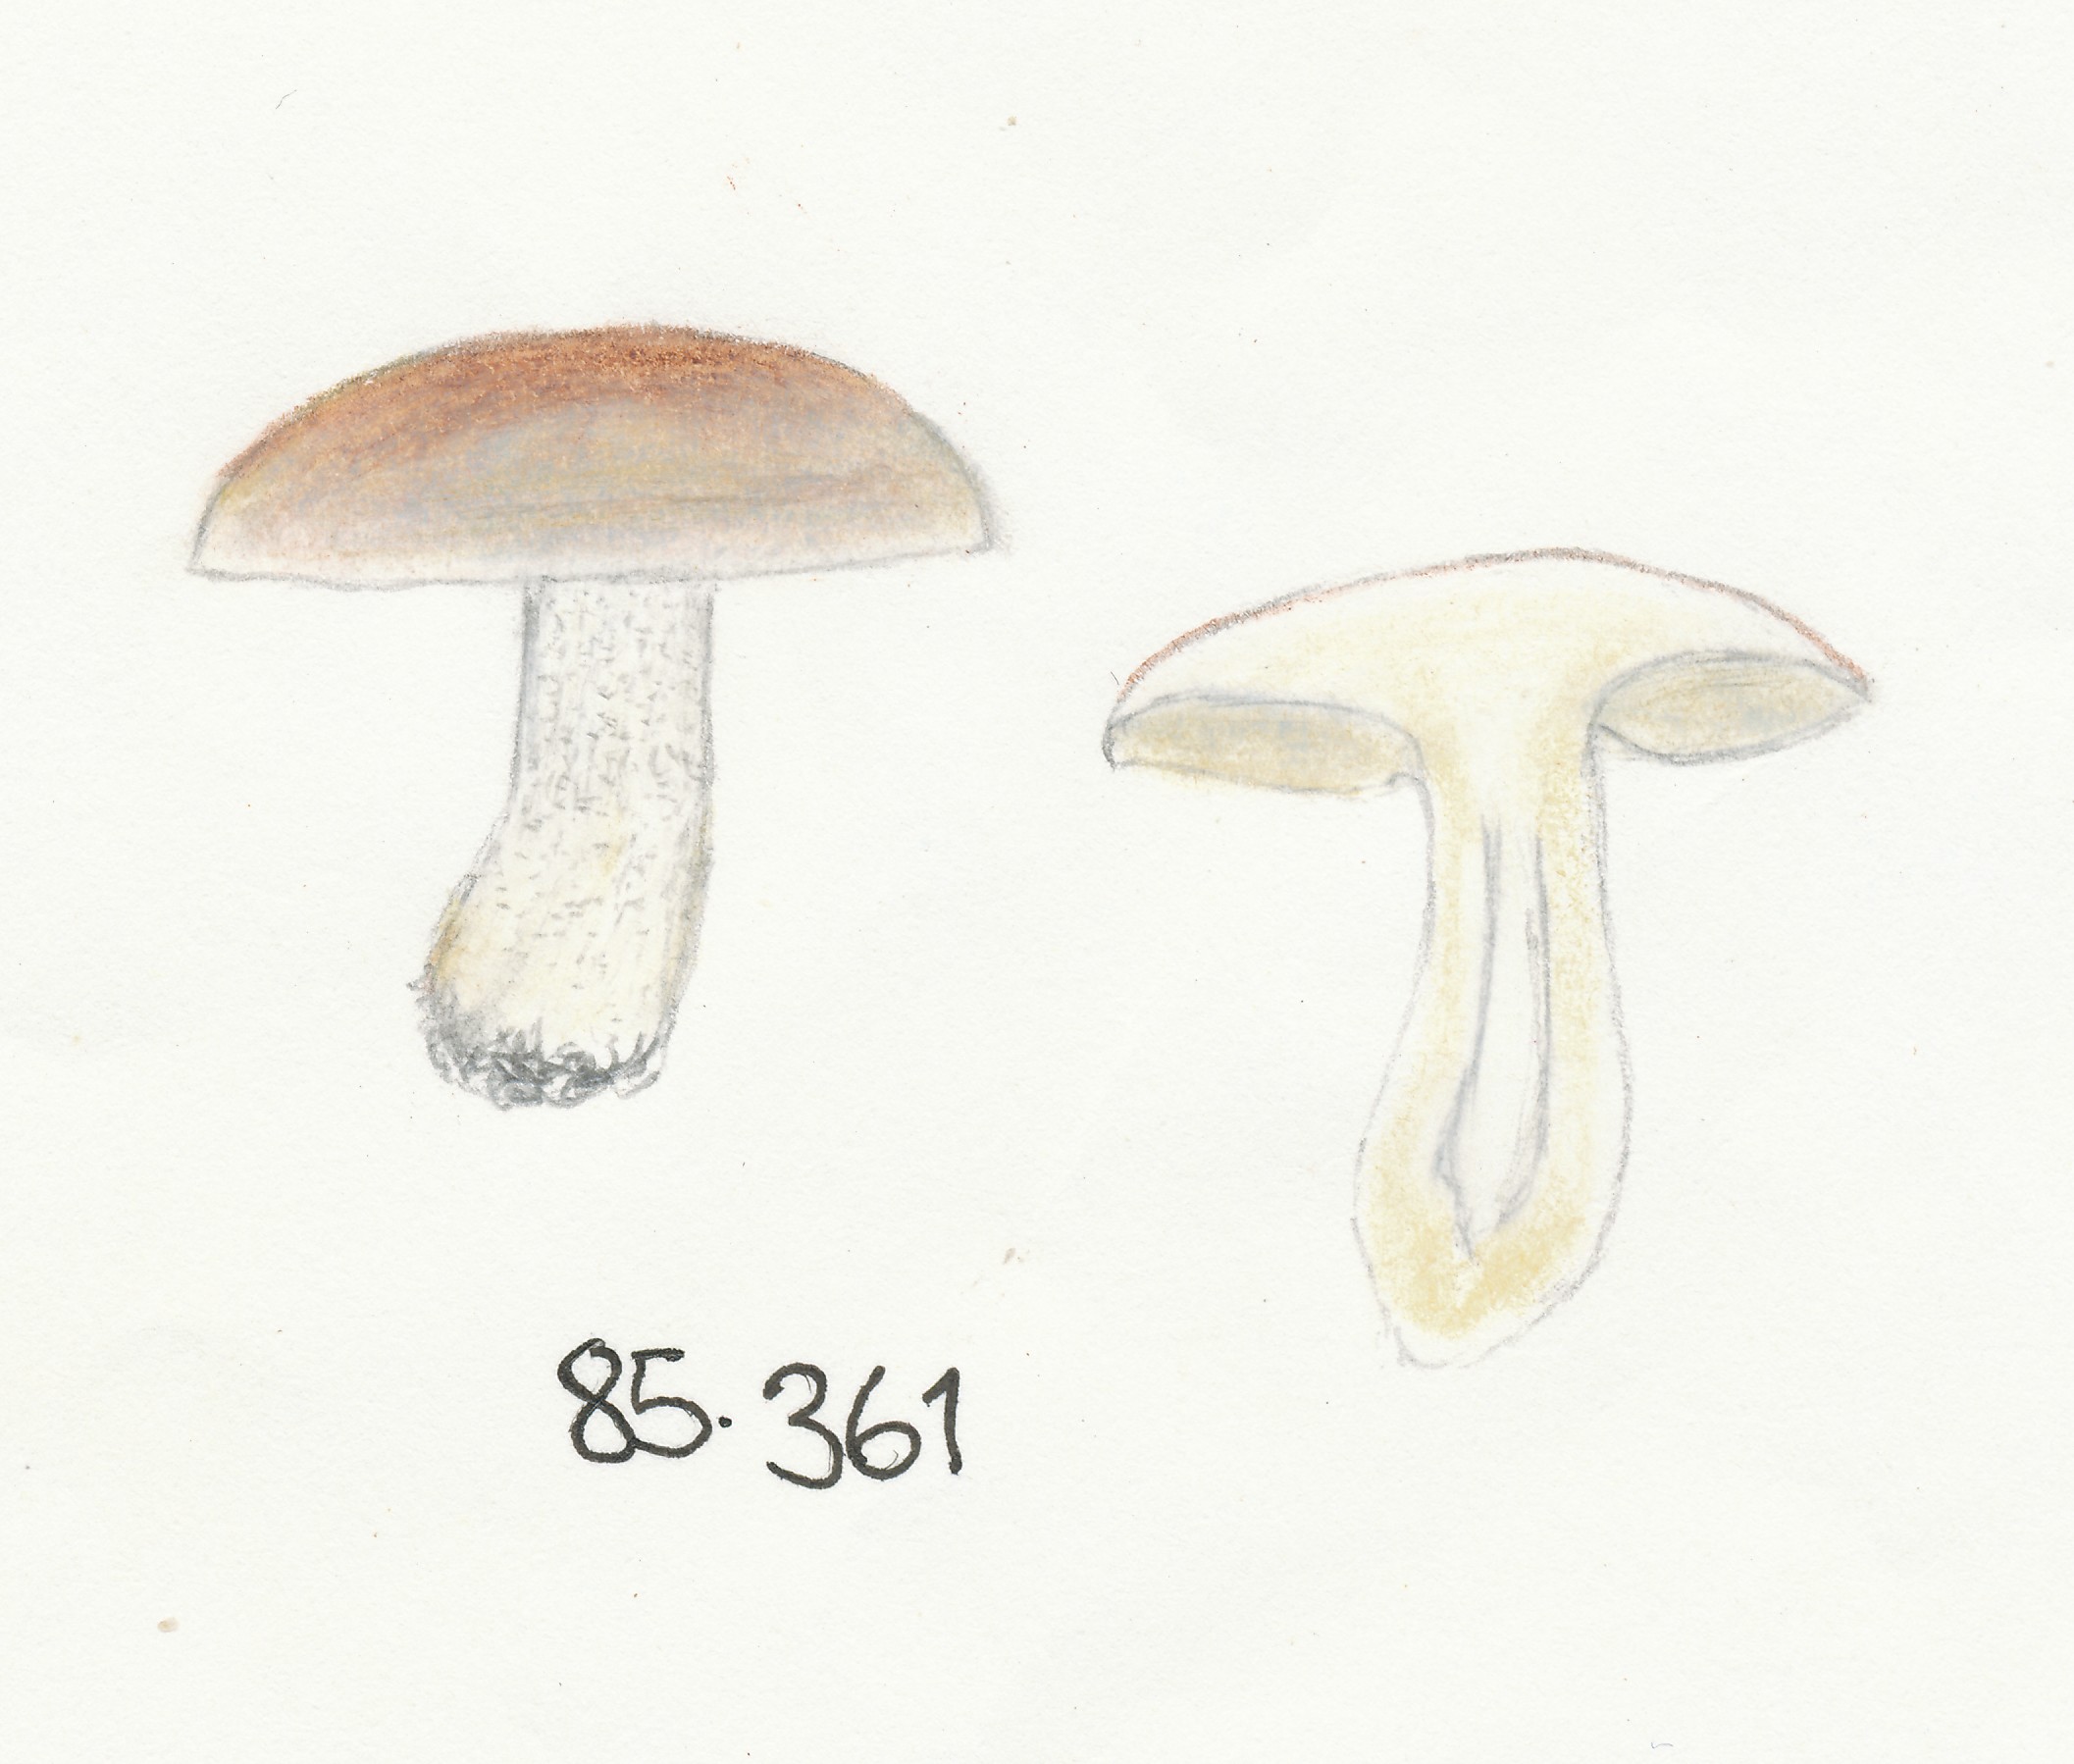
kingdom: Fungi
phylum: Basidiomycota
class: Agaricomycetes
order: Russulales
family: Russulaceae
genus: Lactarius
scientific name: Lactarius rufus
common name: rødbrun mælkehat
